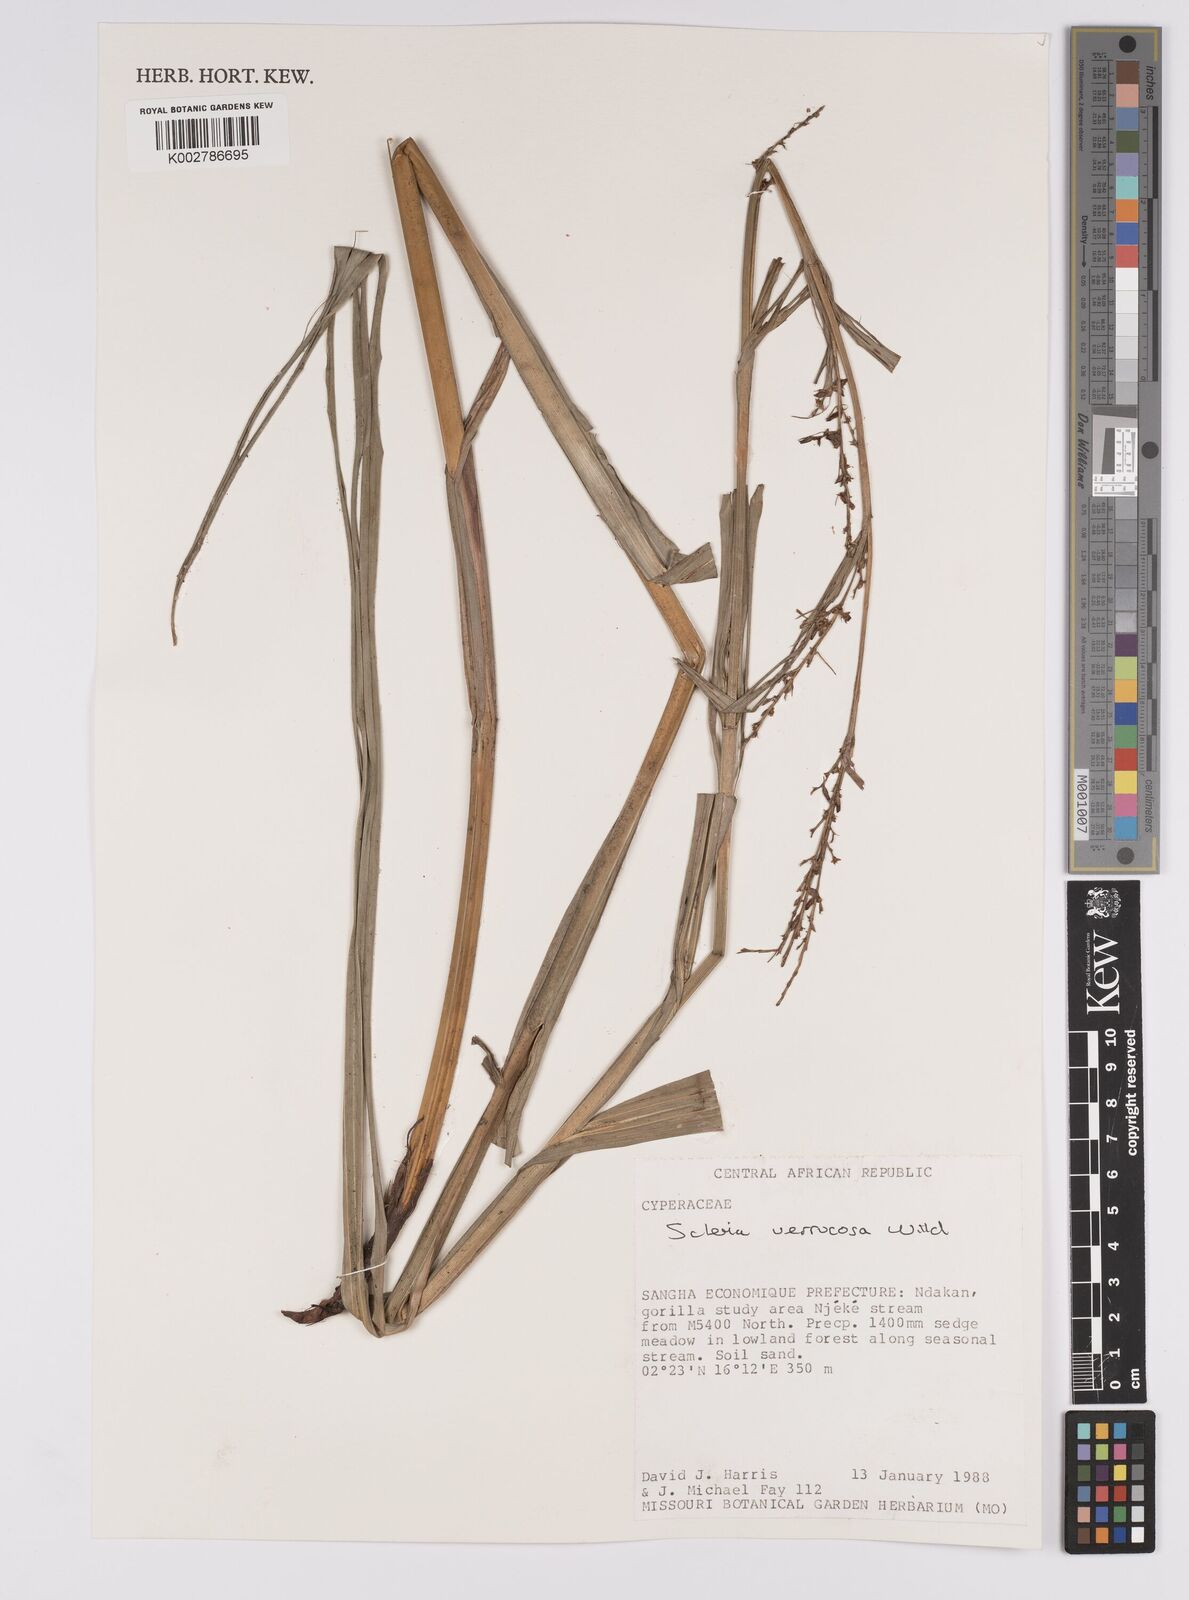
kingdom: Plantae
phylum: Tracheophyta
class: Liliopsida
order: Poales
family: Cyperaceae
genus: Scleria
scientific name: Scleria verrucosa
